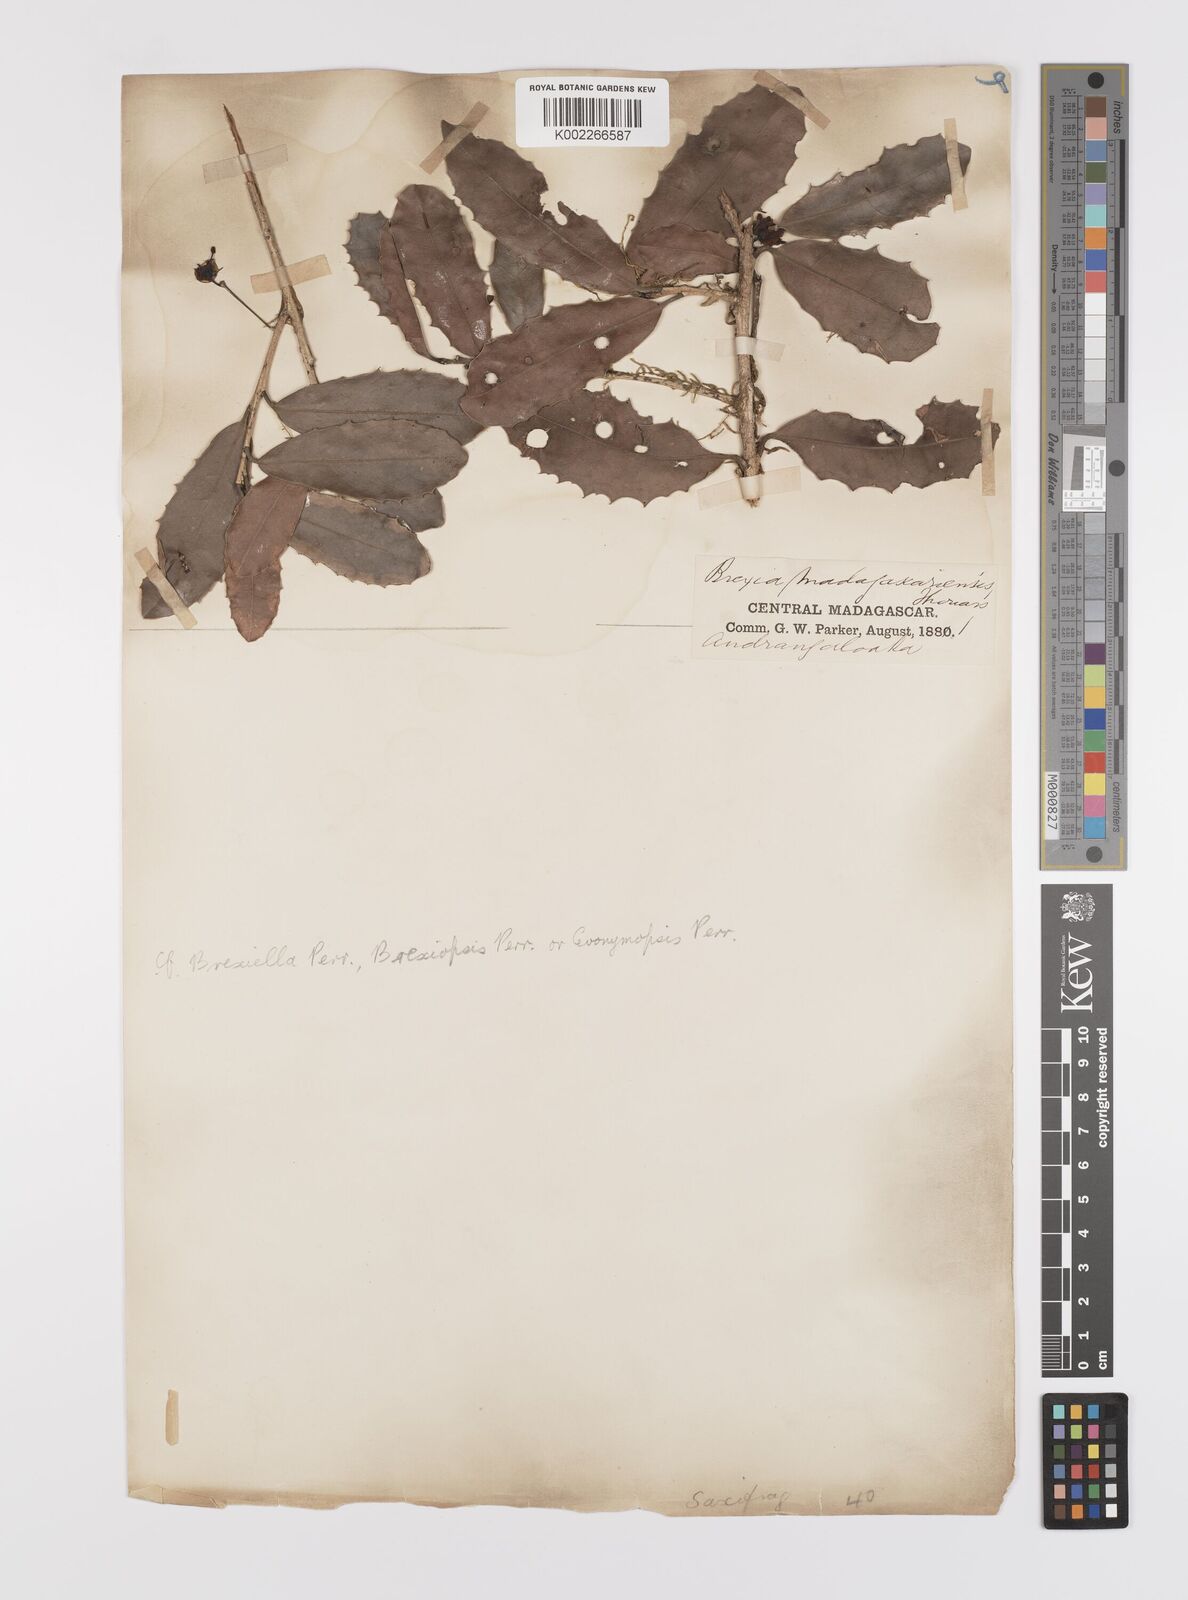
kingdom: Plantae
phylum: Tracheophyta
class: Magnoliopsida
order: Celastrales
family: Celastraceae
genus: Brexia
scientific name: Brexia madagascariensis
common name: Brexia
